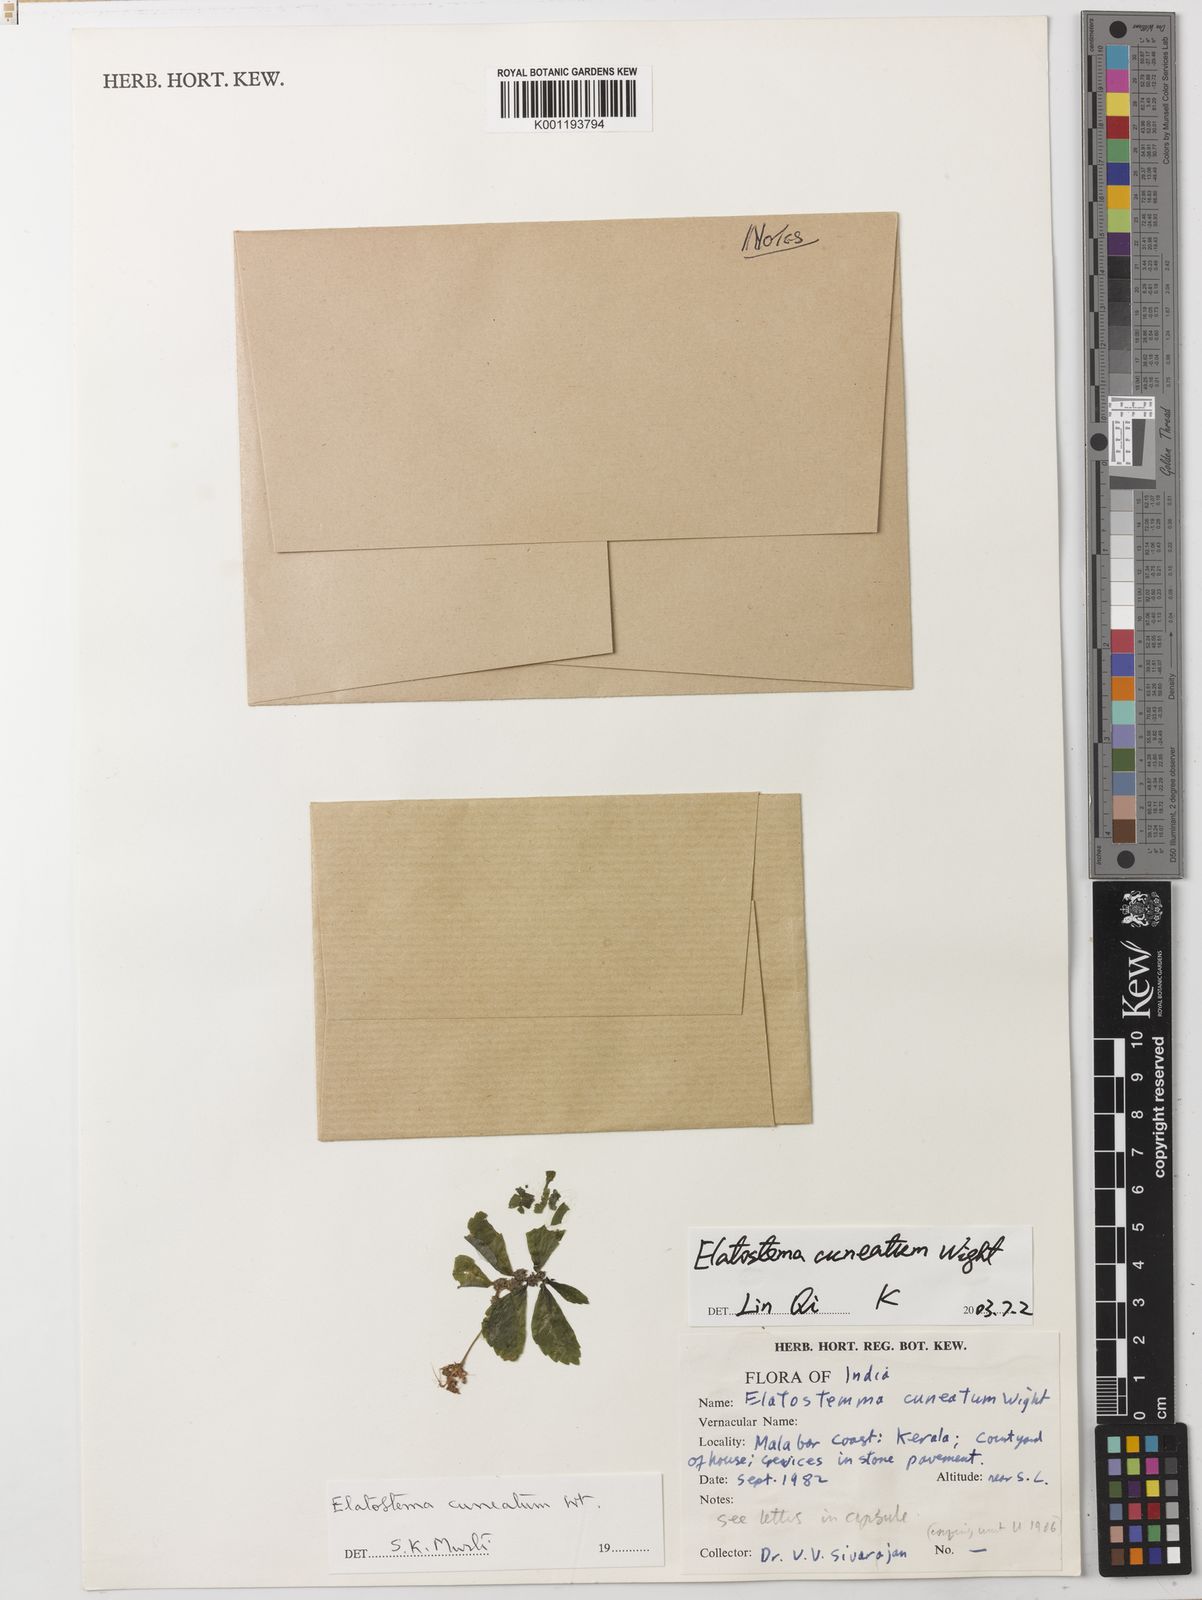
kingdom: Plantae
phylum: Tracheophyta
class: Magnoliopsida
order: Rosales
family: Urticaceae
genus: Elatostema
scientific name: Elatostema cuneatum
